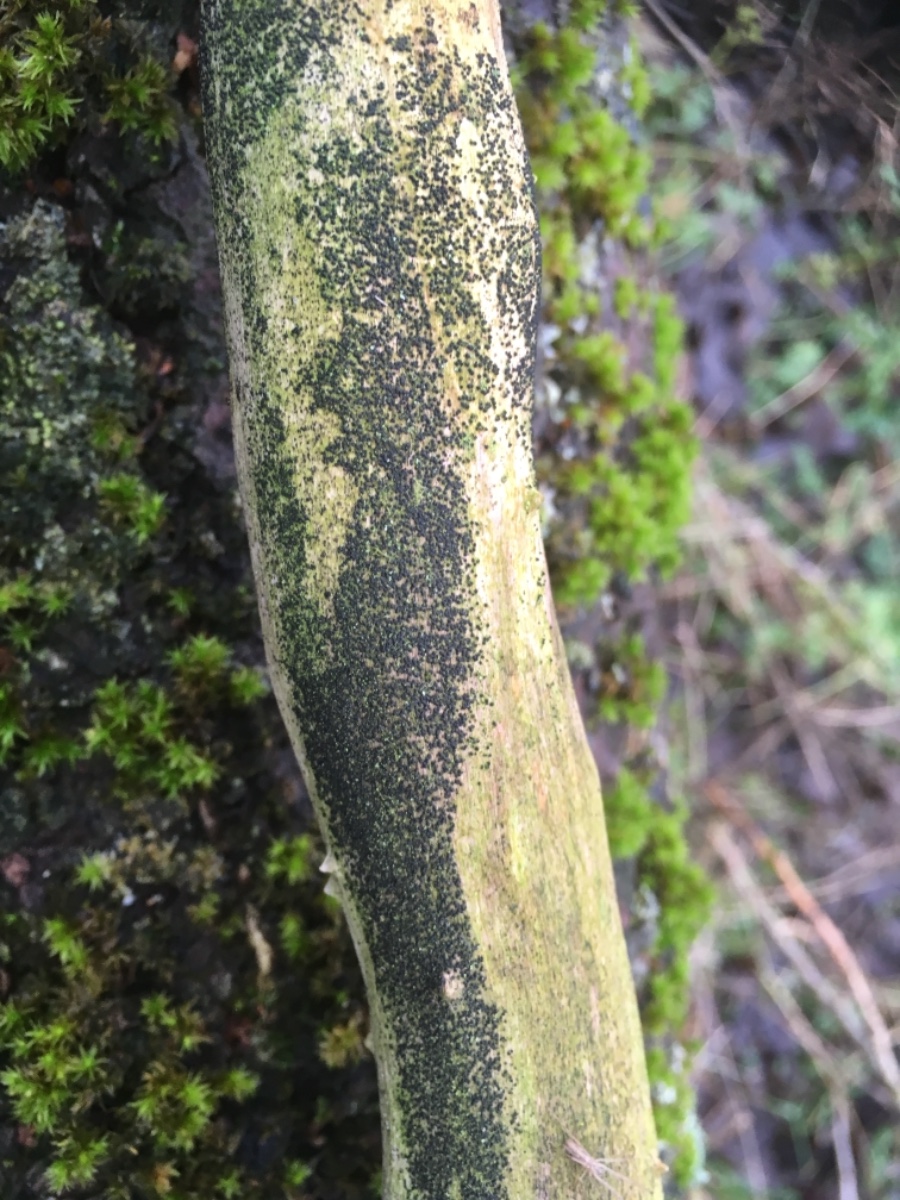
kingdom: Fungi
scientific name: Fungi
